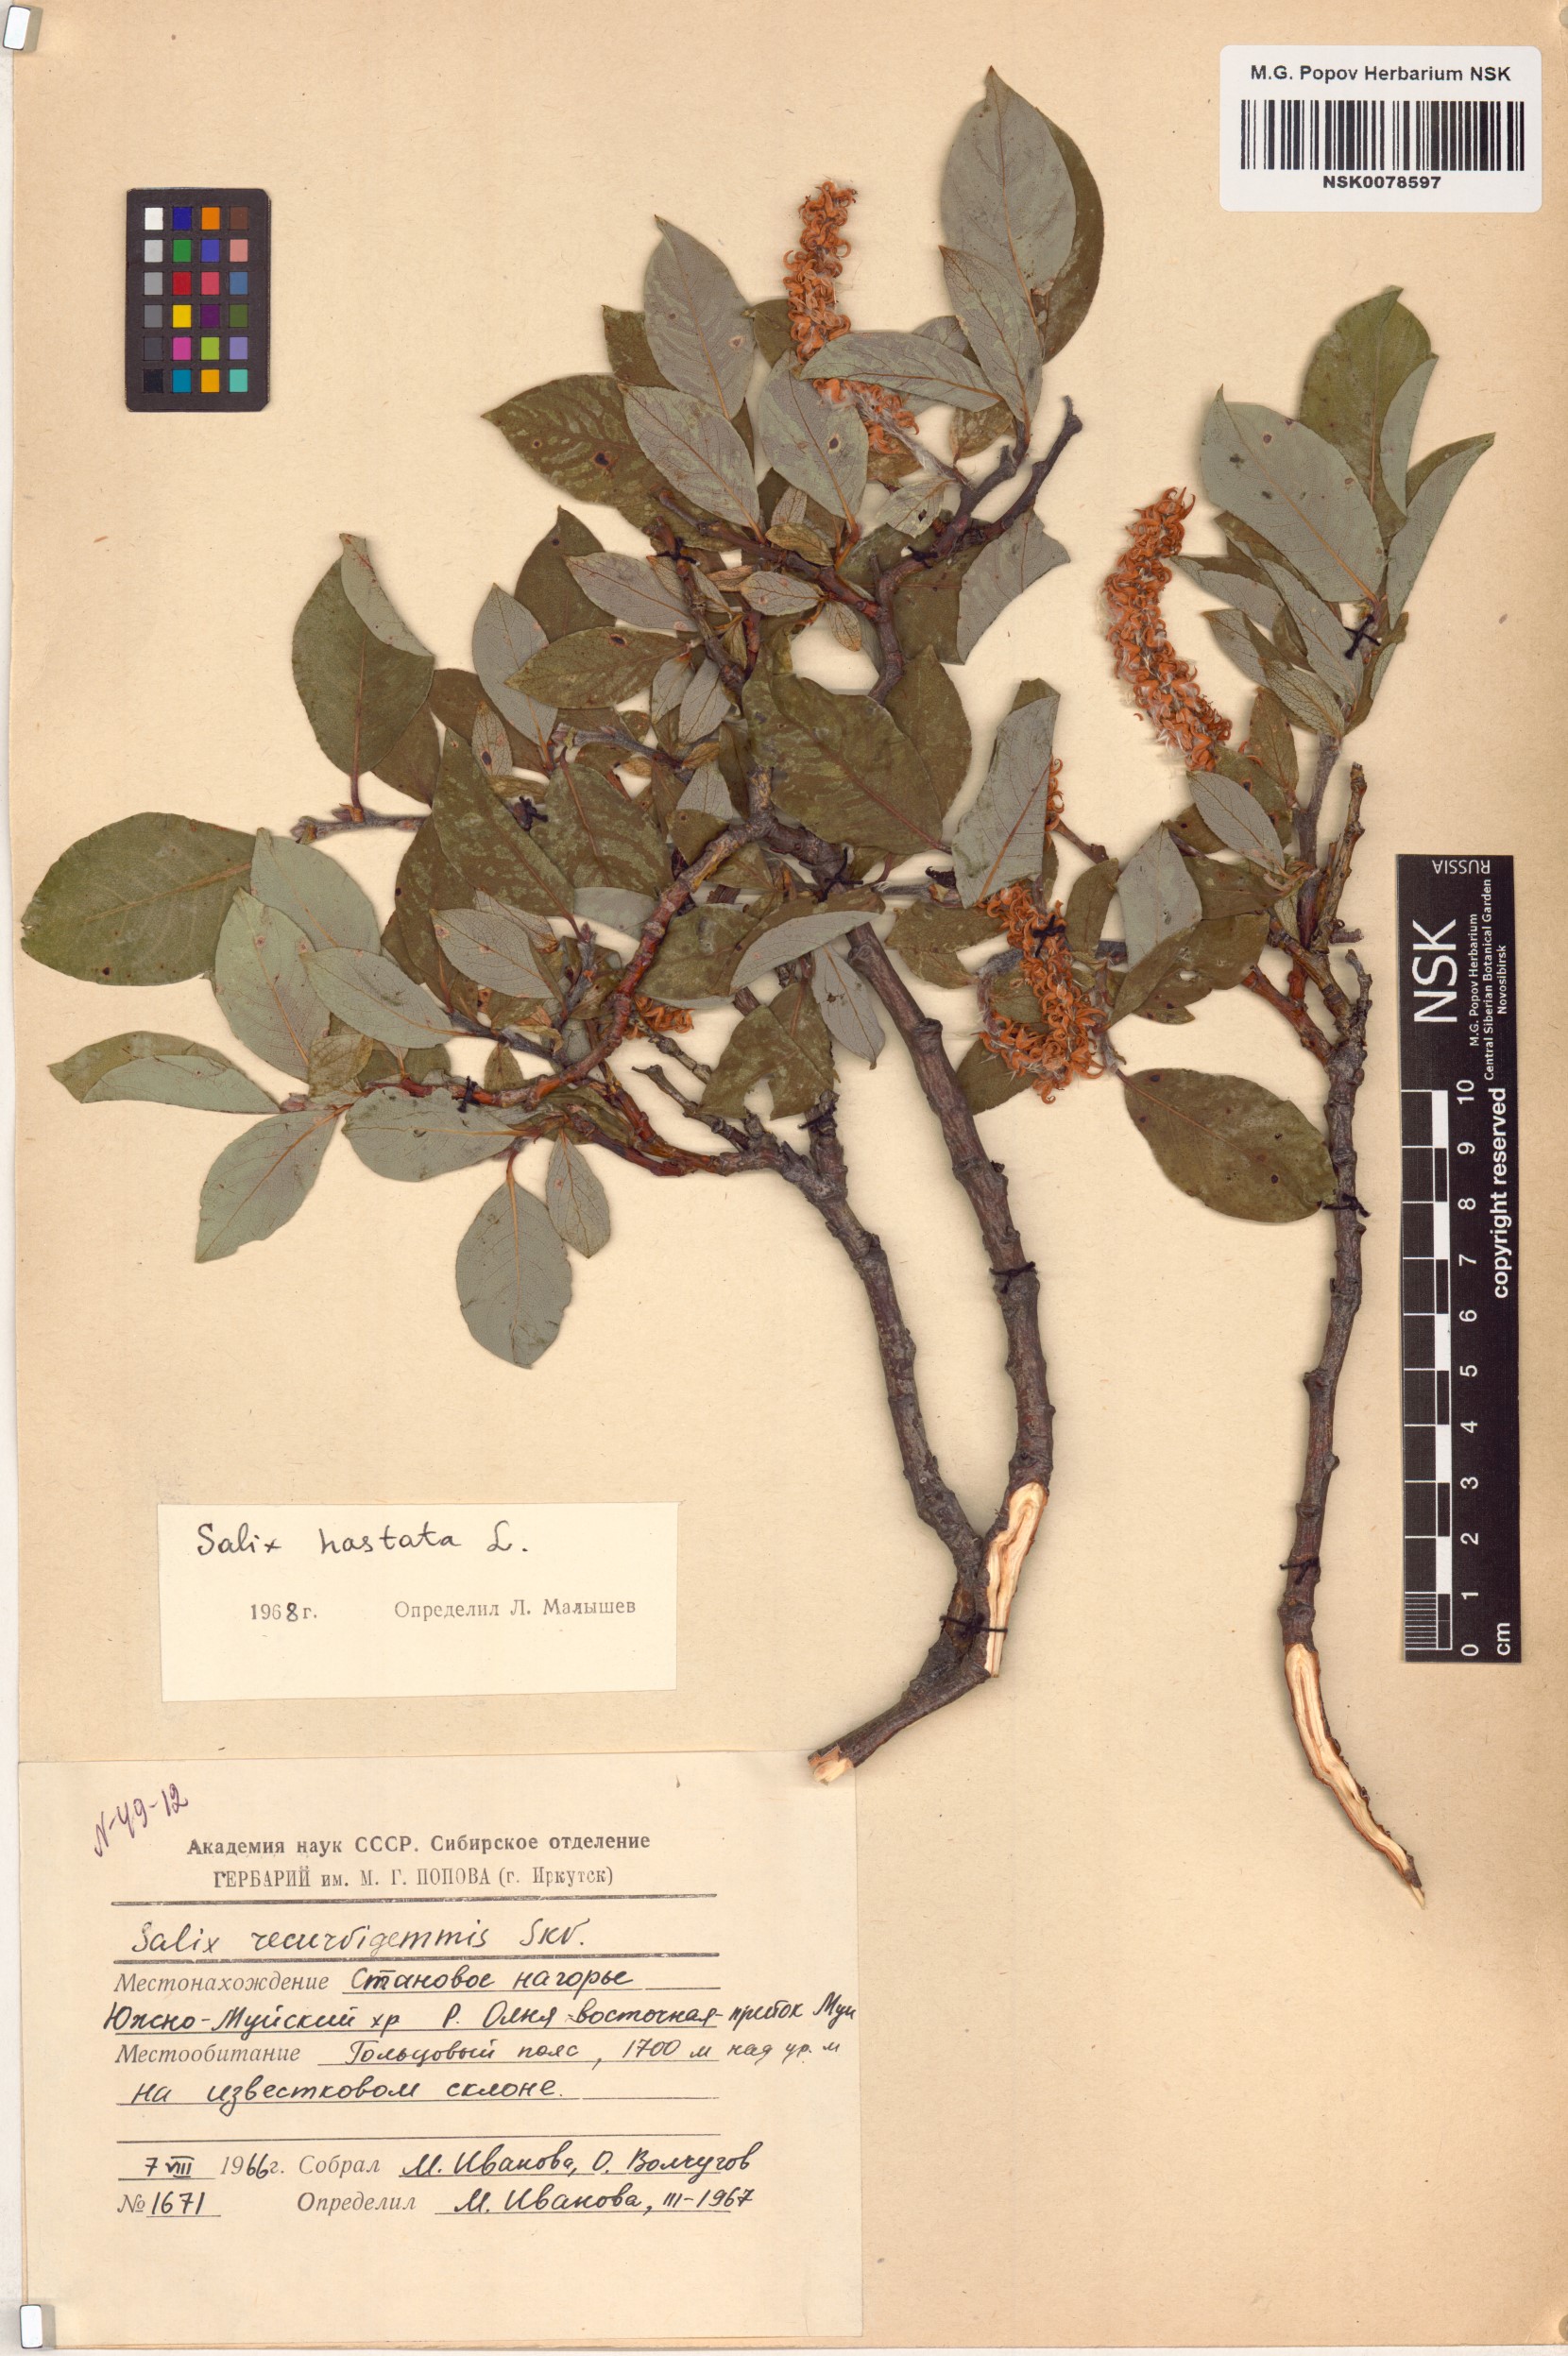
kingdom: Plantae
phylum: Tracheophyta
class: Magnoliopsida
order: Malpighiales
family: Salicaceae
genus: Salix
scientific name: Salix hastata
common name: Halberd willow
